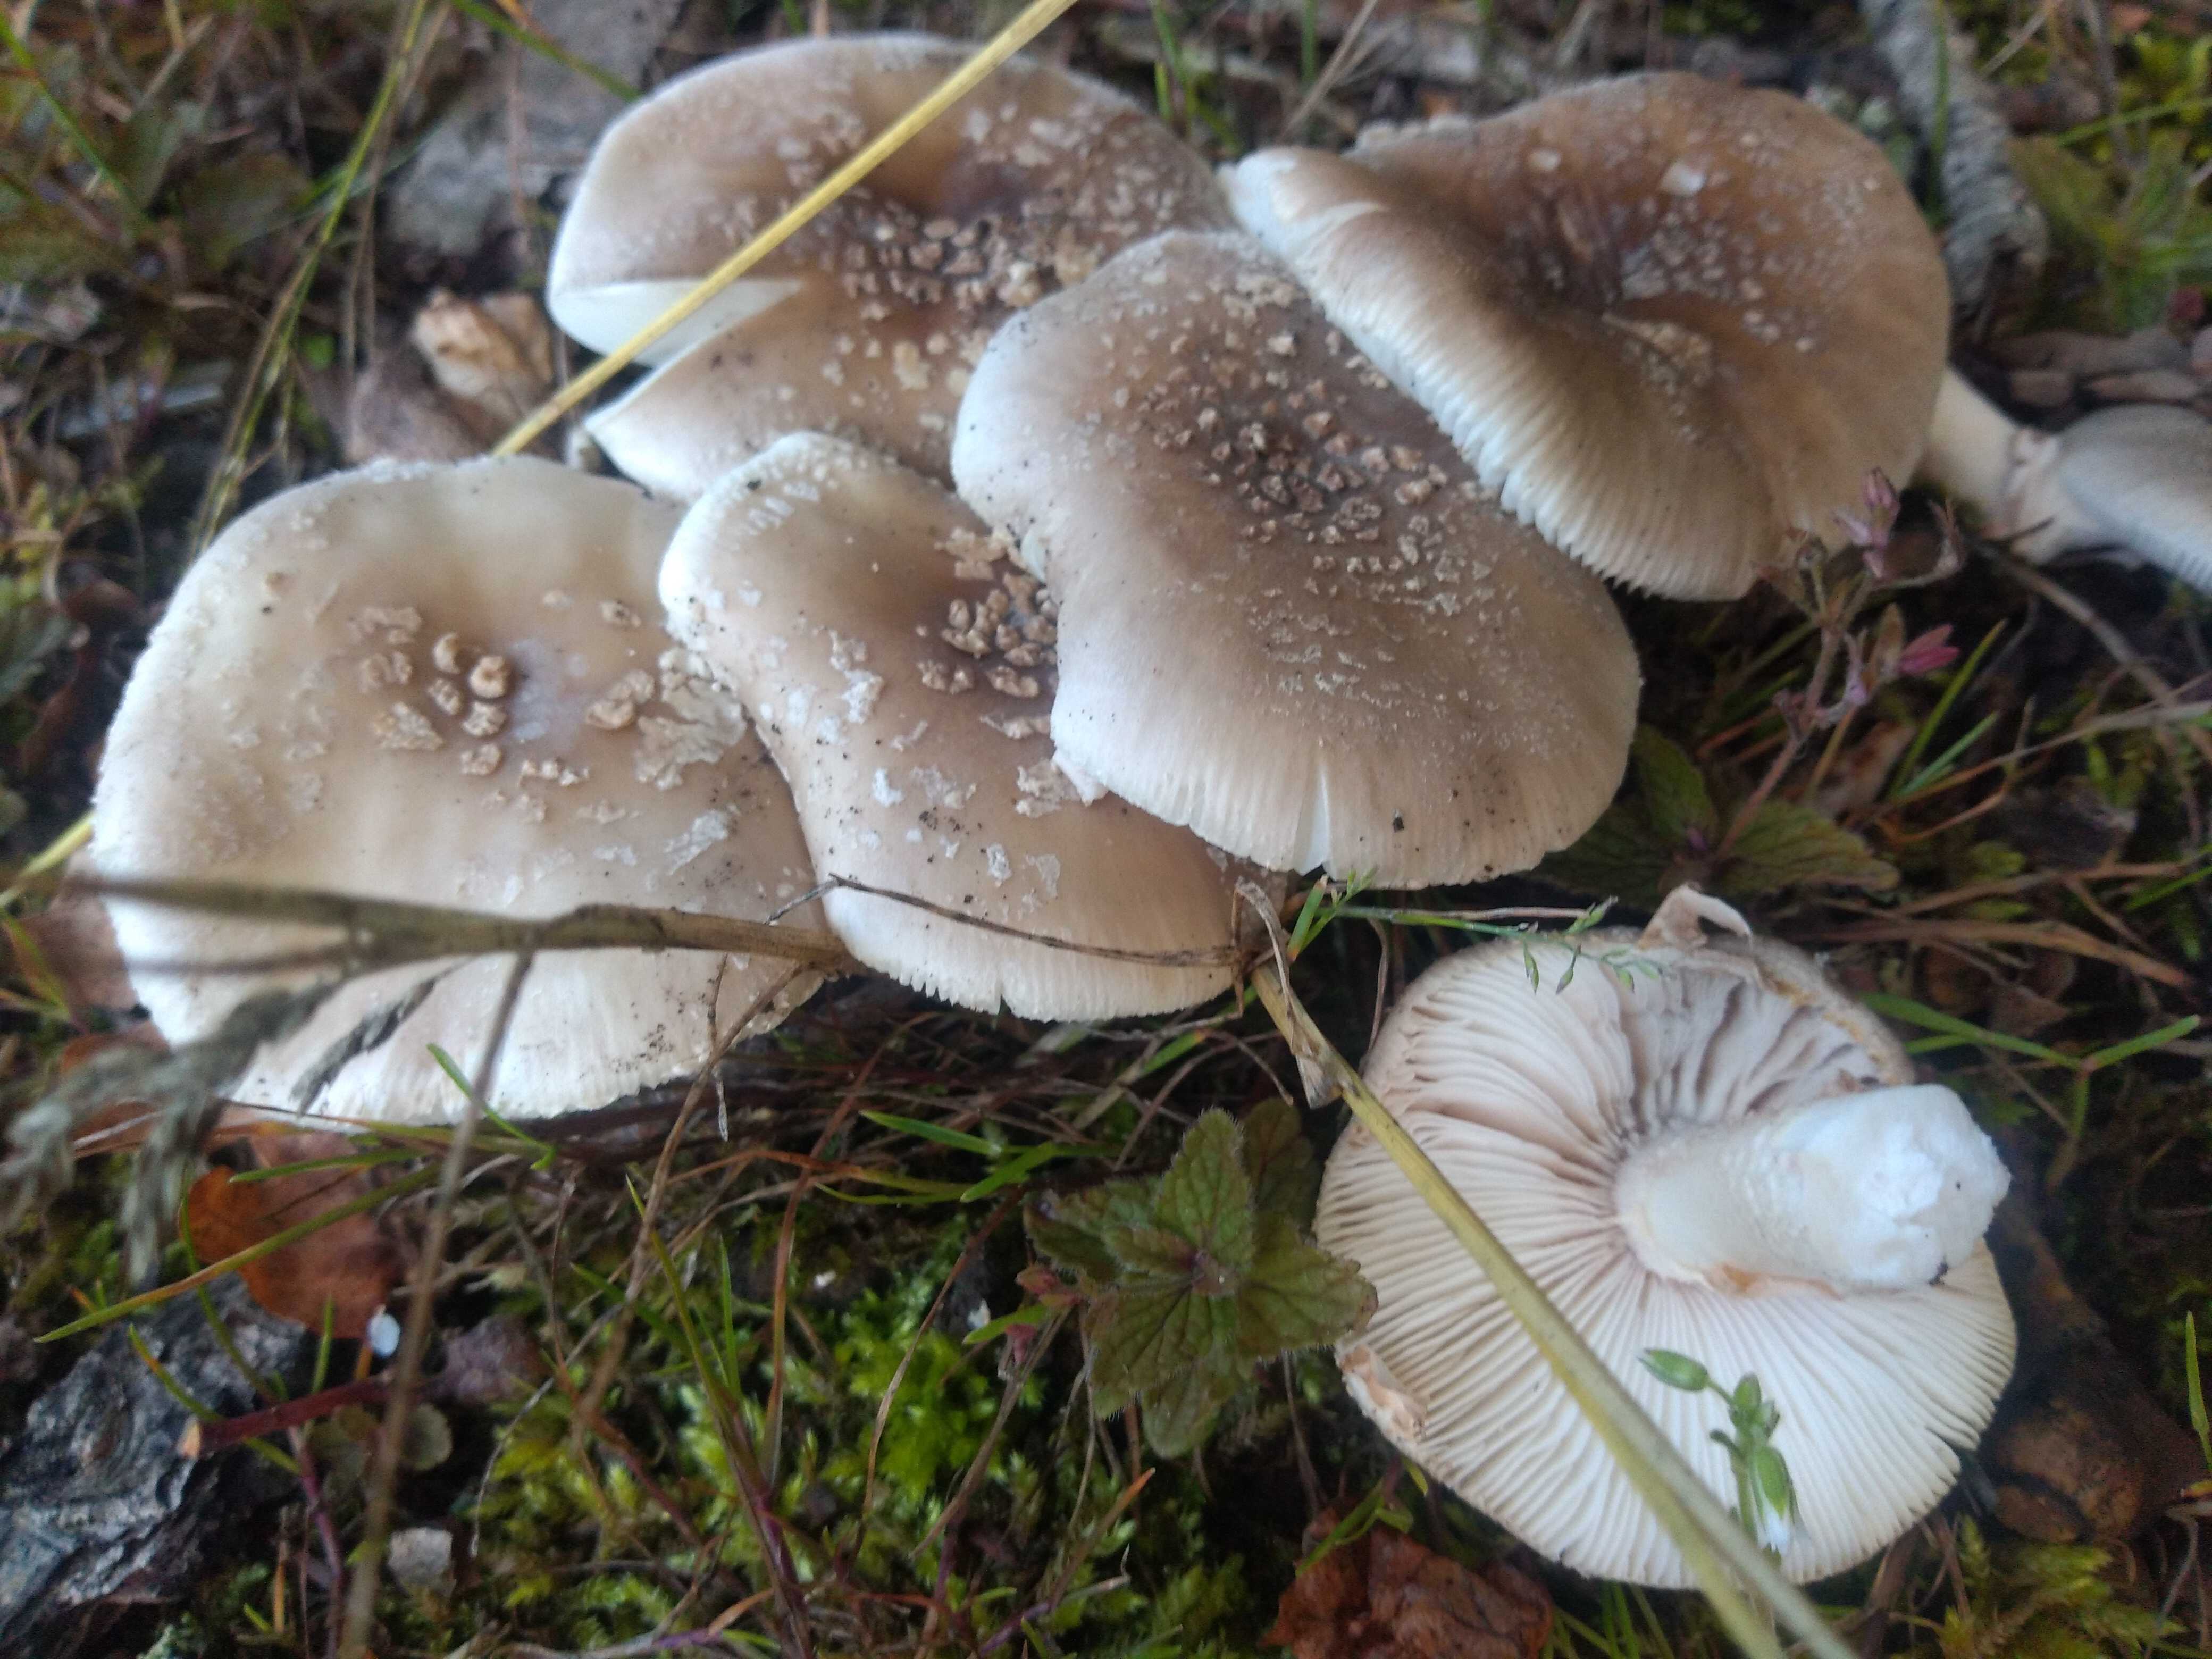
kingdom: Fungi
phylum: Basidiomycota
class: Agaricomycetes
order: Agaricales
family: Amanitaceae
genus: Amanita
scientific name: Amanita
